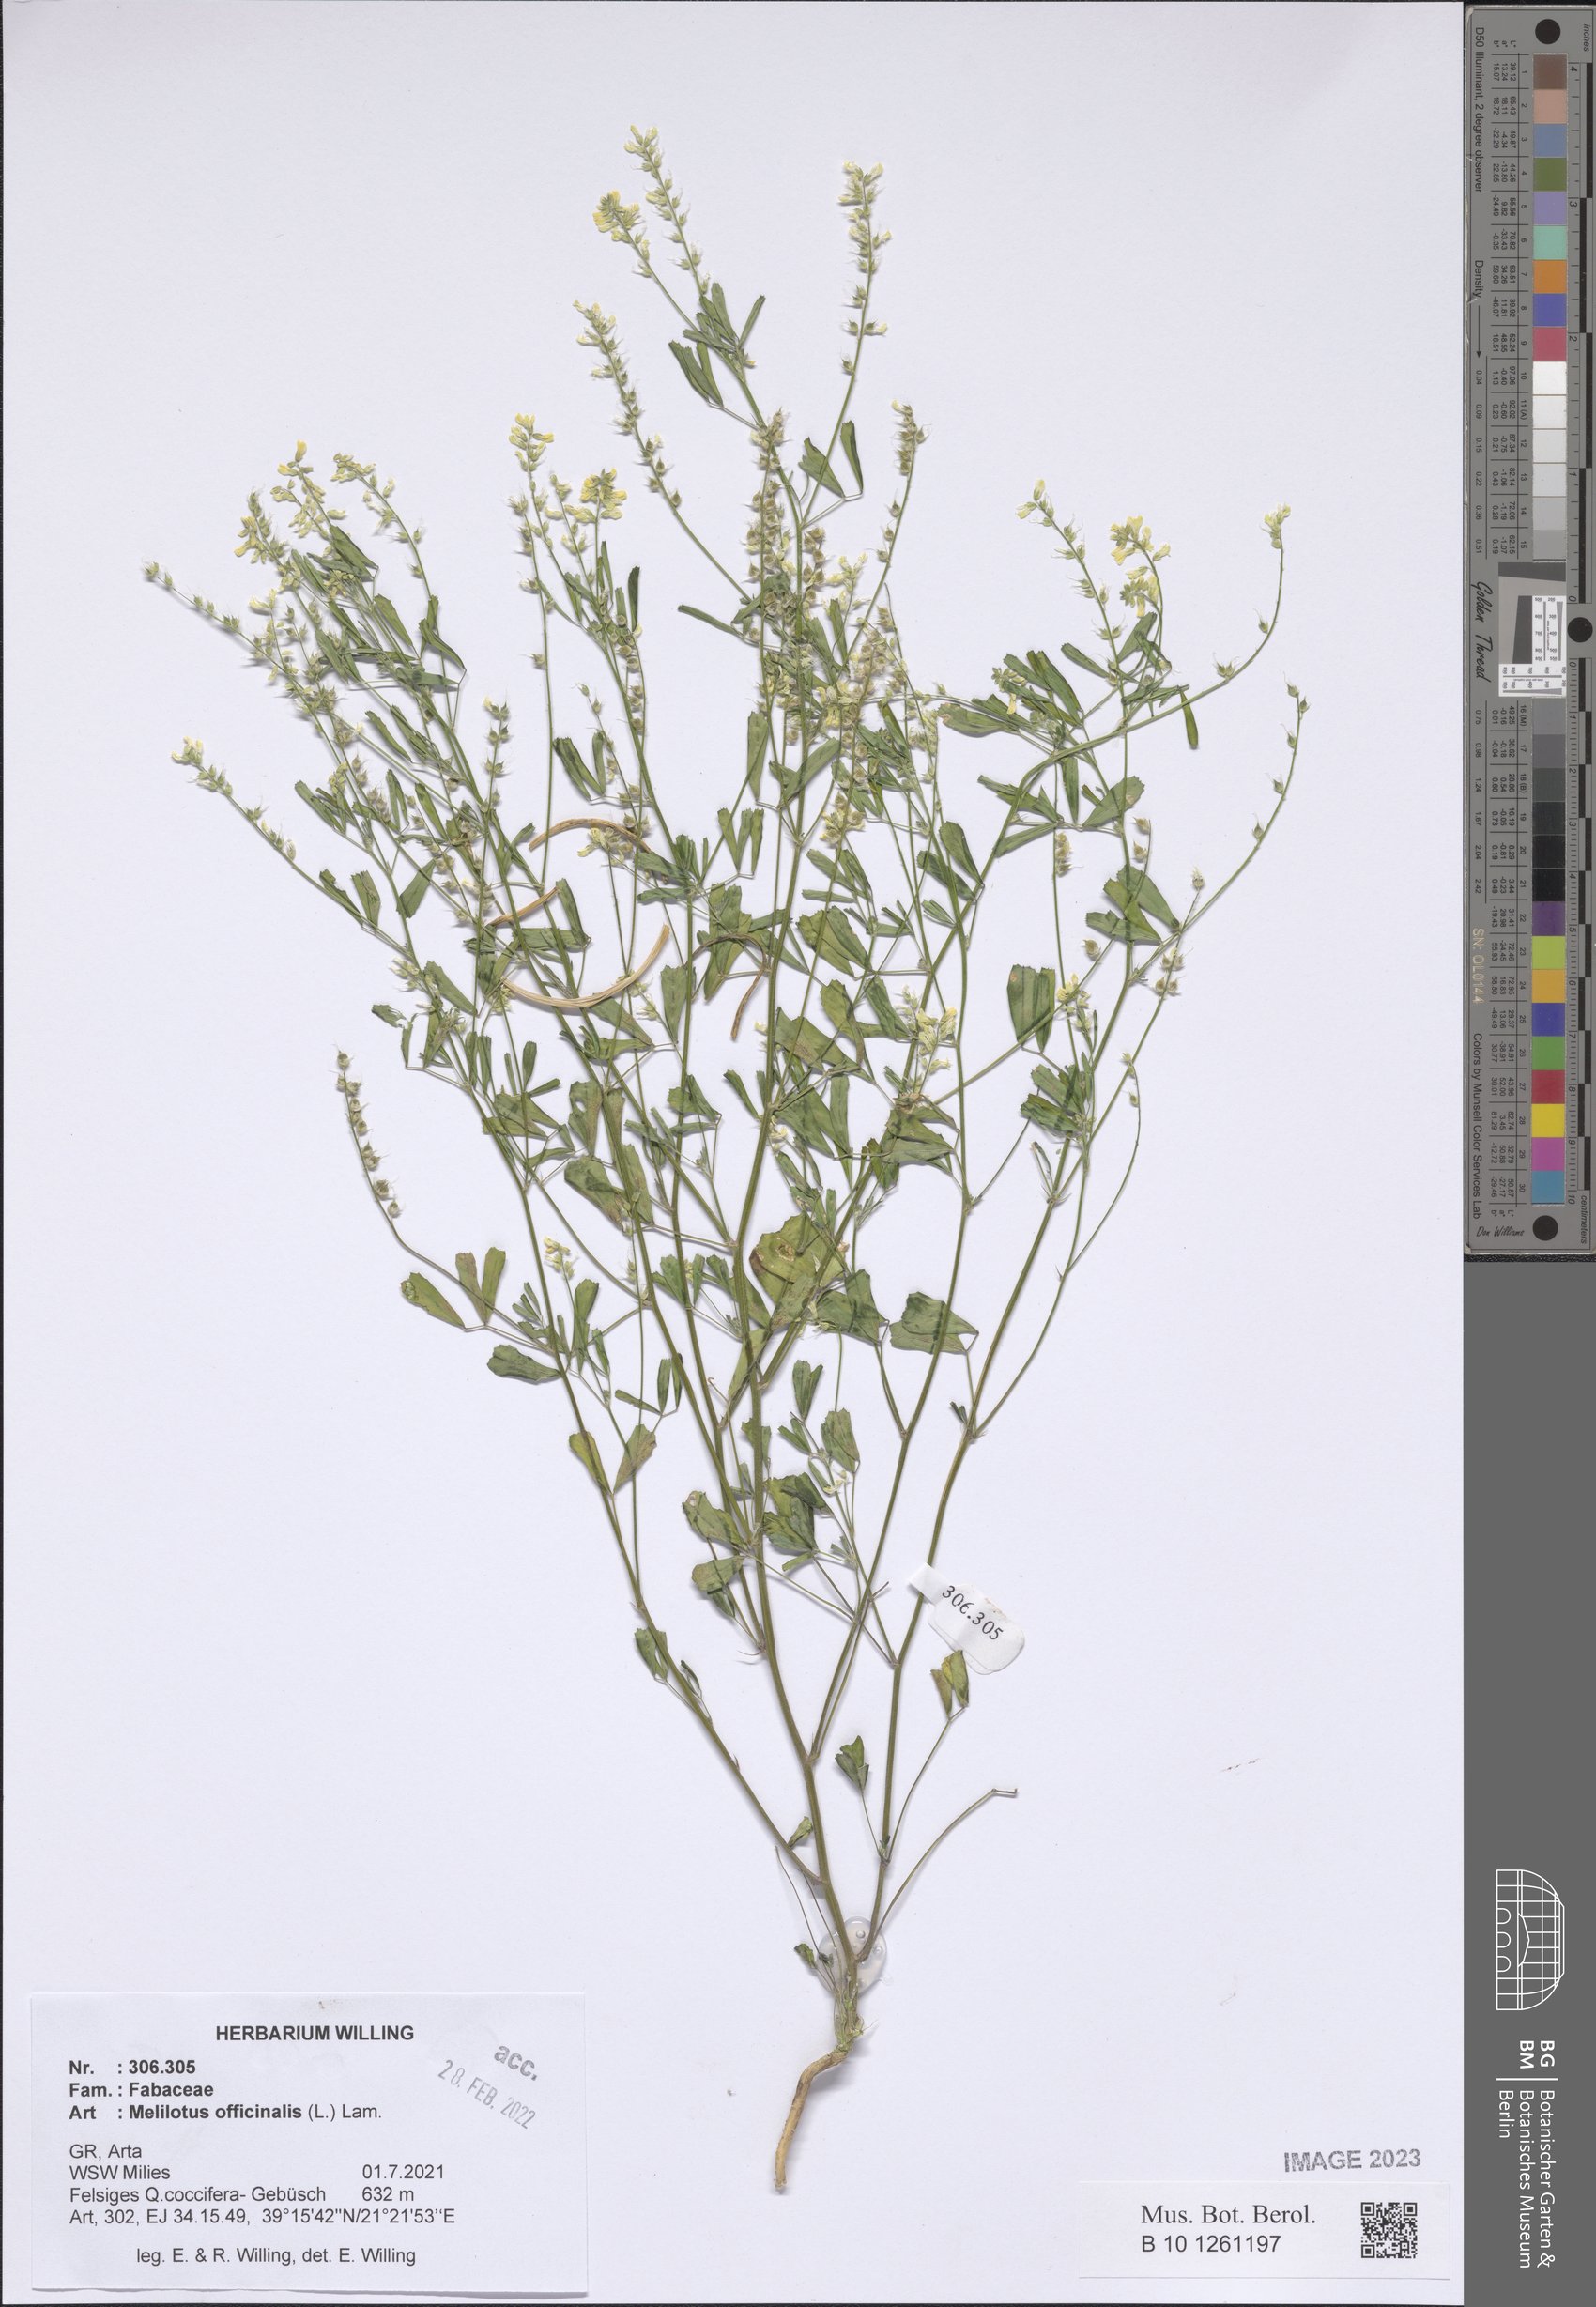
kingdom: Plantae
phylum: Tracheophyta
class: Magnoliopsida
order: Fabales
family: Fabaceae
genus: Melilotus
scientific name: Melilotus officinalis
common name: Sweetclover
